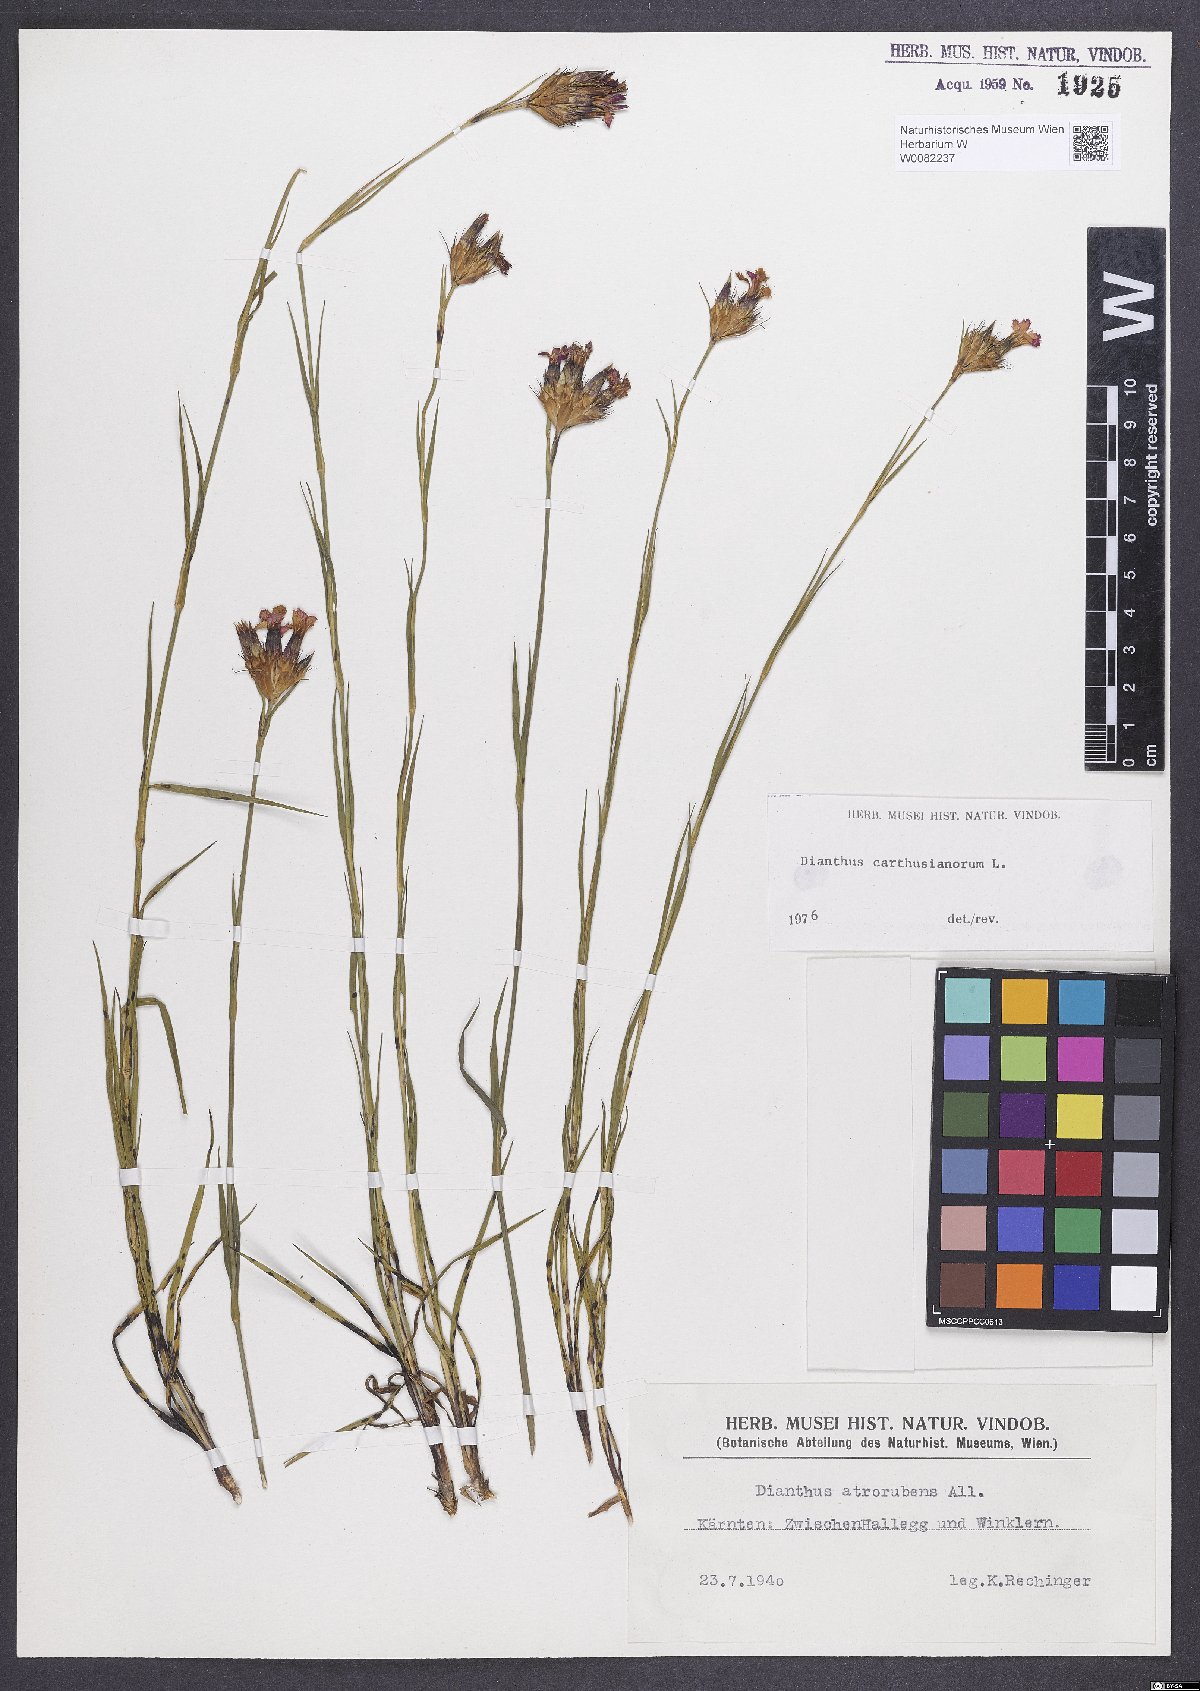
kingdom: Plantae
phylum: Tracheophyta
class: Magnoliopsida
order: Caryophyllales
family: Caryophyllaceae
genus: Dianthus
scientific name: Dianthus carthusianorum
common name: Carthusian pink
